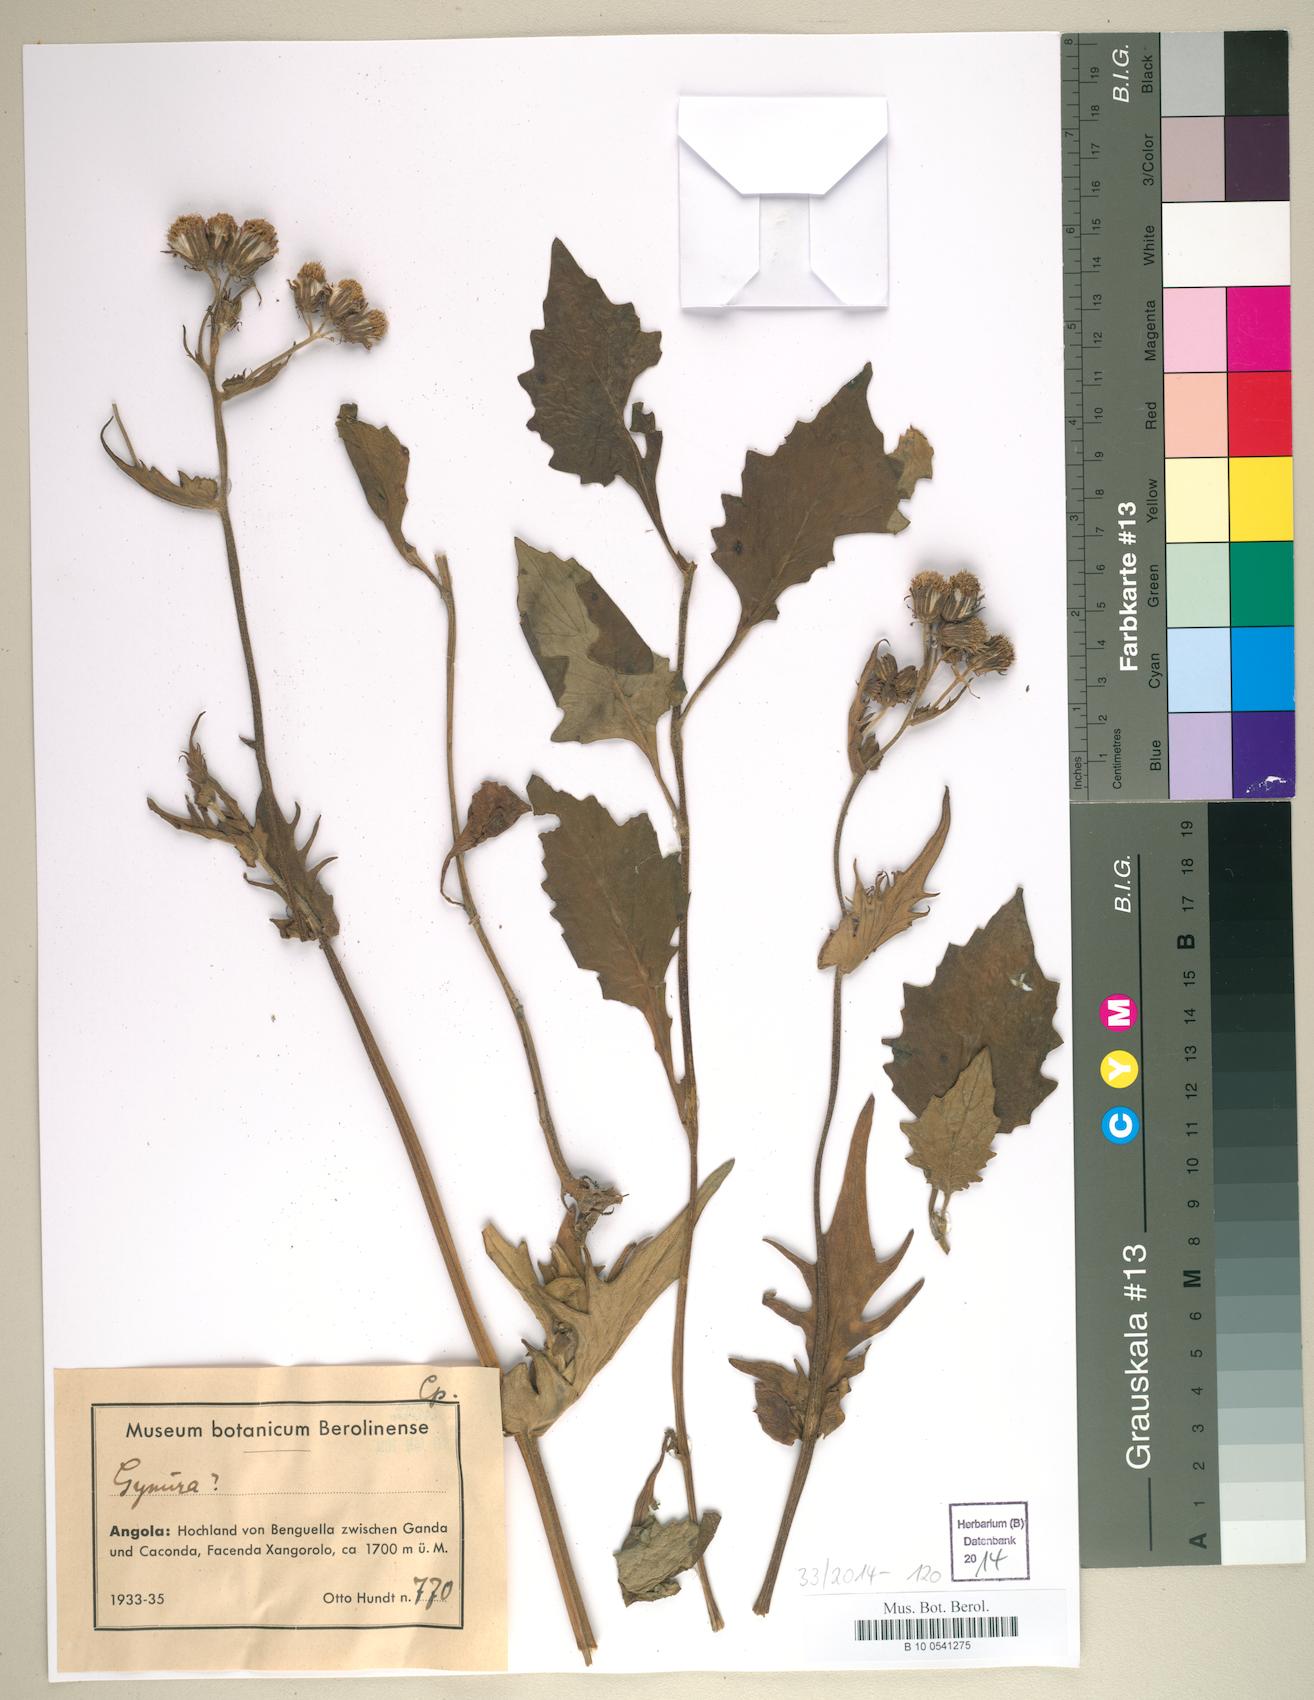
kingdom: Plantae
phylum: Tracheophyta
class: Magnoliopsida
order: Asterales
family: Asteraceae
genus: Gynura
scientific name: Gynura
